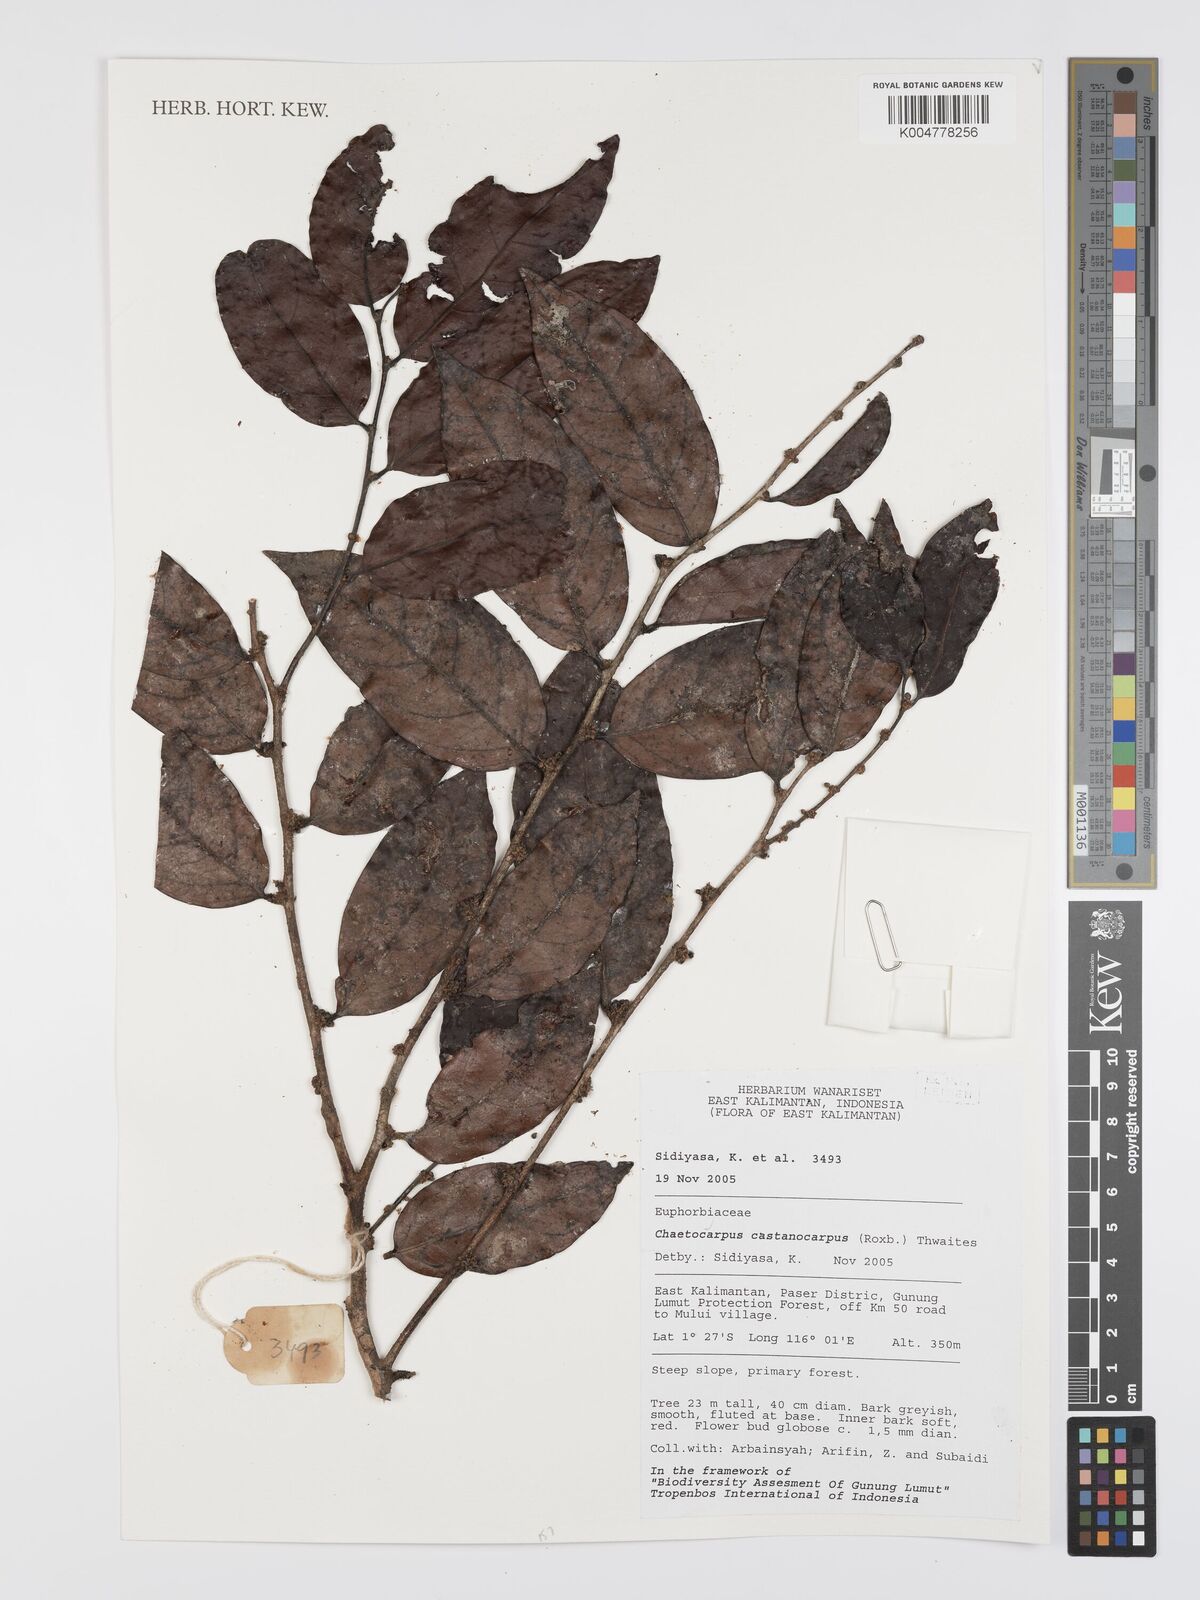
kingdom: Plantae
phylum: Tracheophyta
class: Magnoliopsida
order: Malpighiales
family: Peraceae
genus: Chaetocarpus
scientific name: Chaetocarpus castanocarpus
